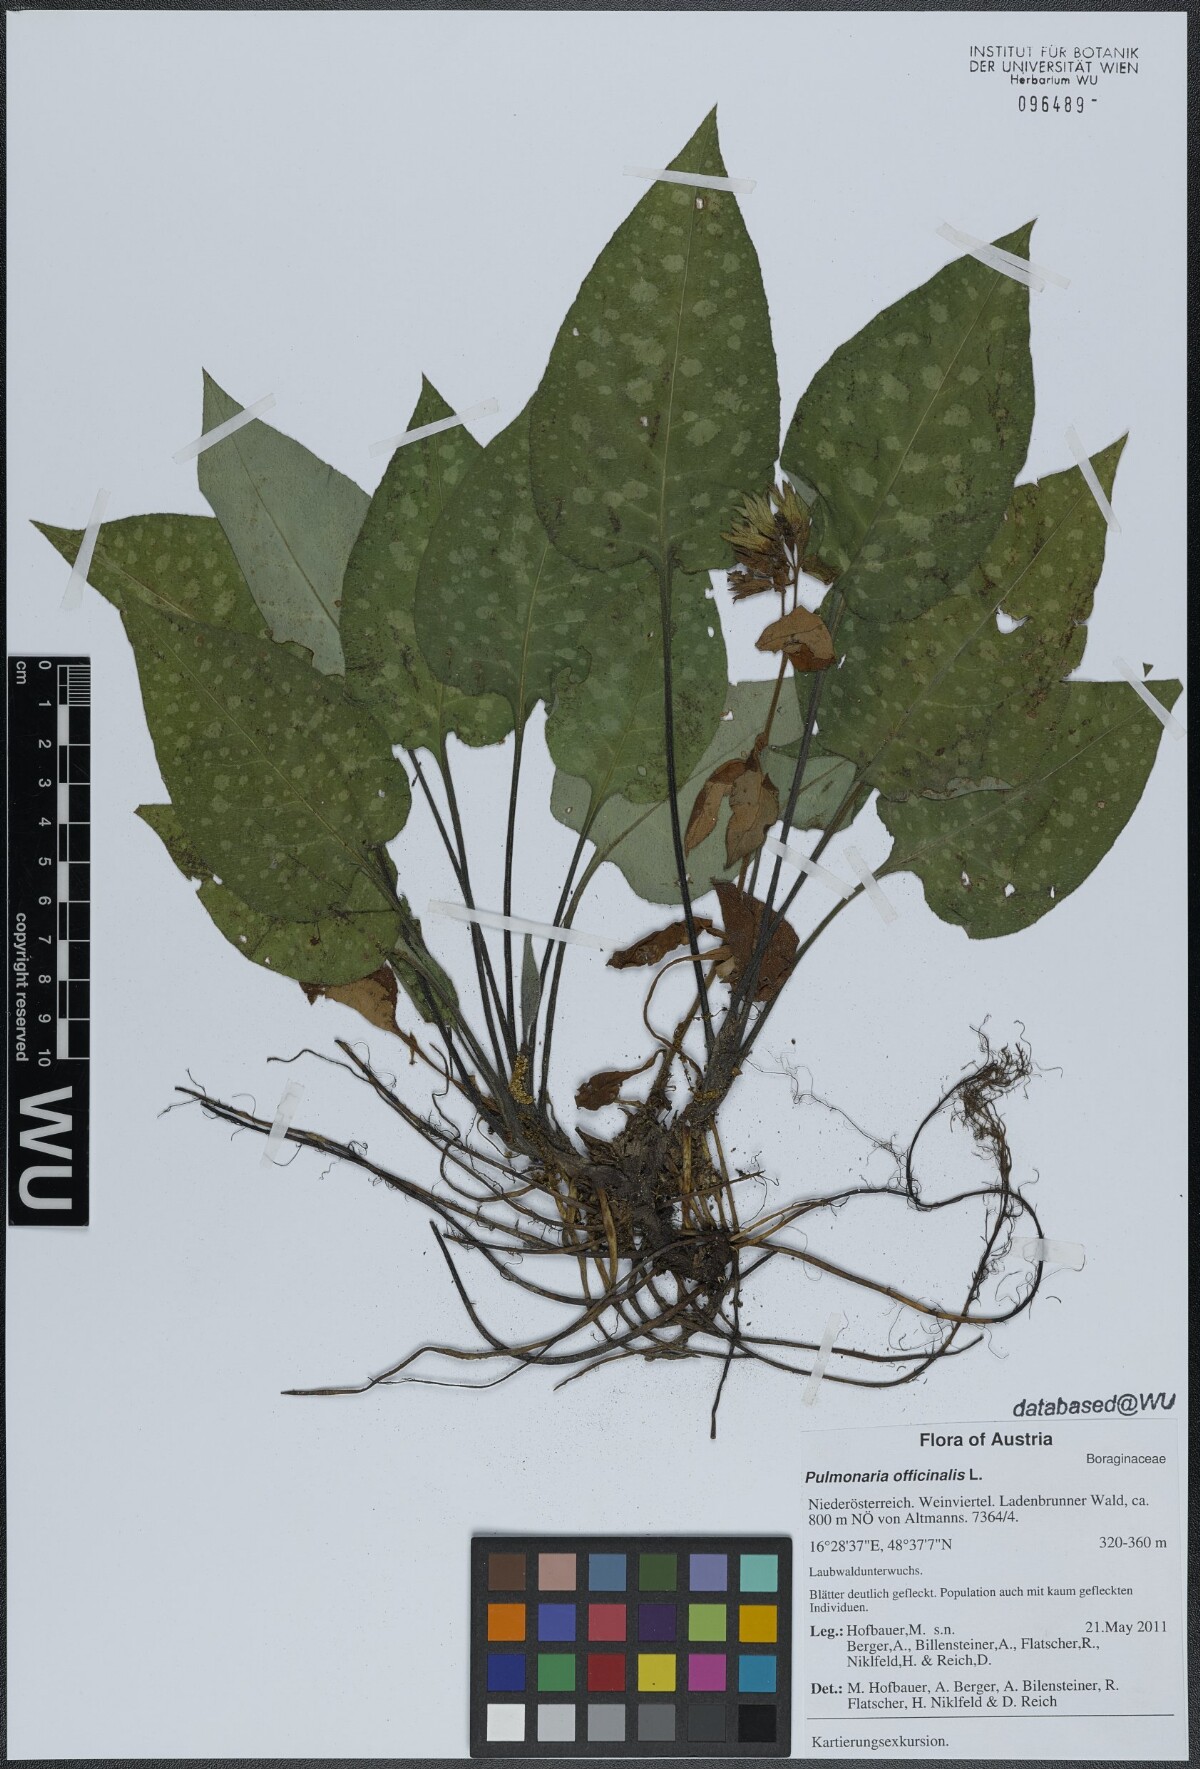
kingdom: Plantae
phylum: Tracheophyta
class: Magnoliopsida
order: Boraginales
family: Boraginaceae
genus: Pulmonaria
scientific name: Pulmonaria officinalis
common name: Lungwort
